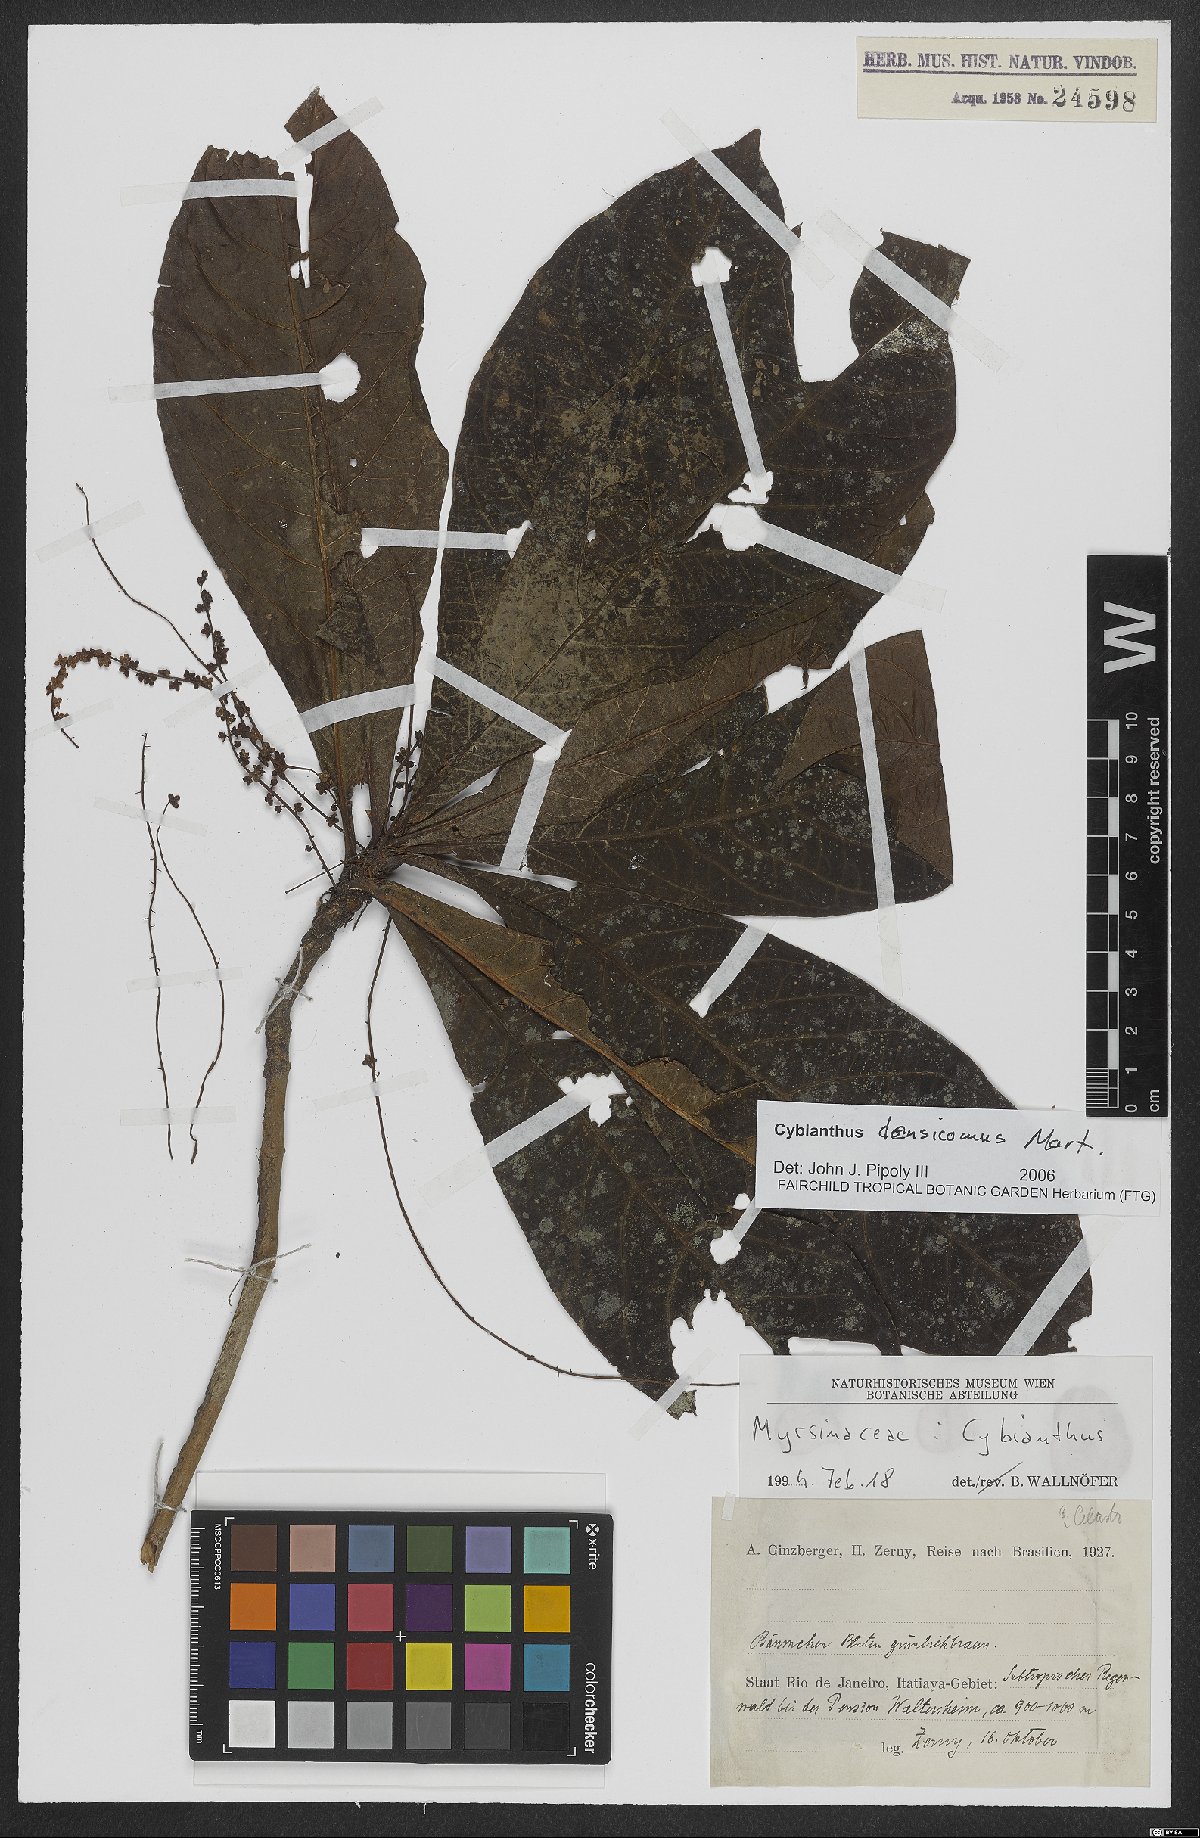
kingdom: Plantae
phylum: Tracheophyta
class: Magnoliopsida
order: Ericales
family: Primulaceae
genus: Cybianthus
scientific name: Cybianthus densicomus
